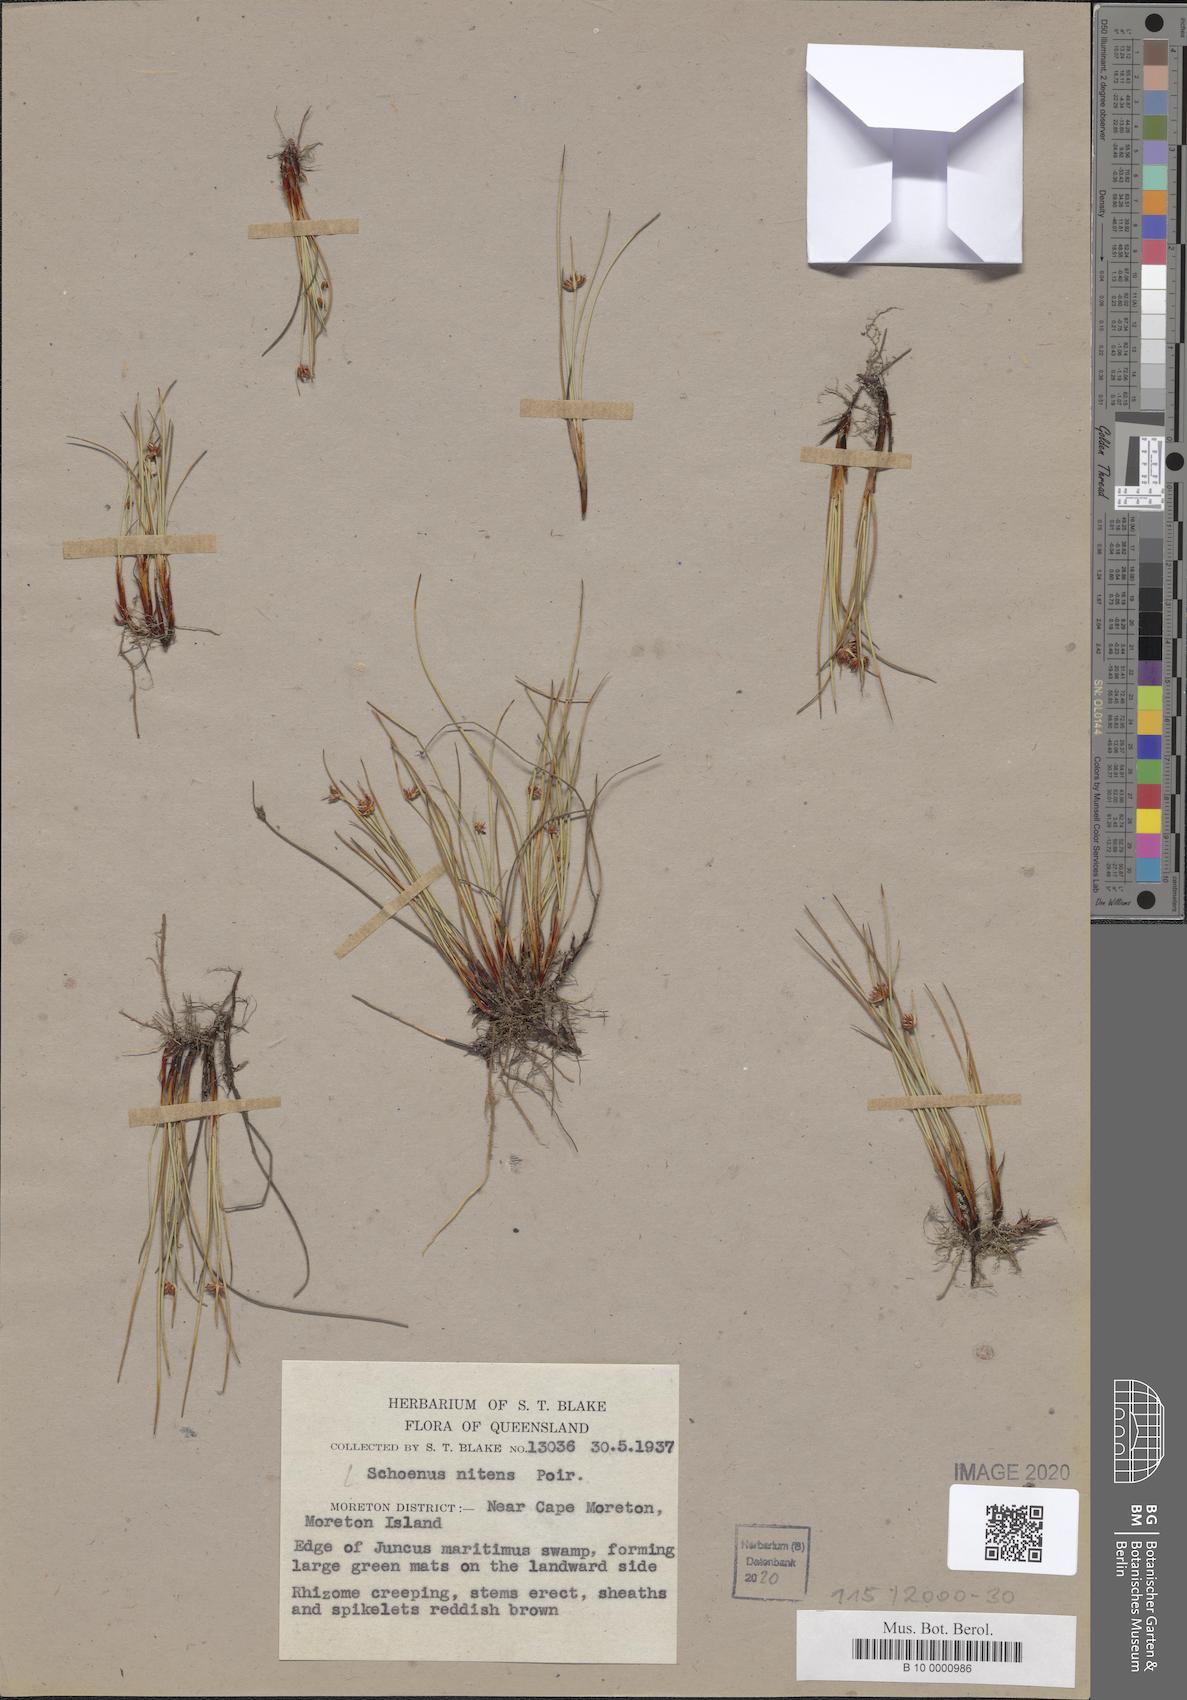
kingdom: Plantae
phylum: Tracheophyta
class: Liliopsida
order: Poales
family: Cyperaceae
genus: Schoenus
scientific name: Schoenus nitens
